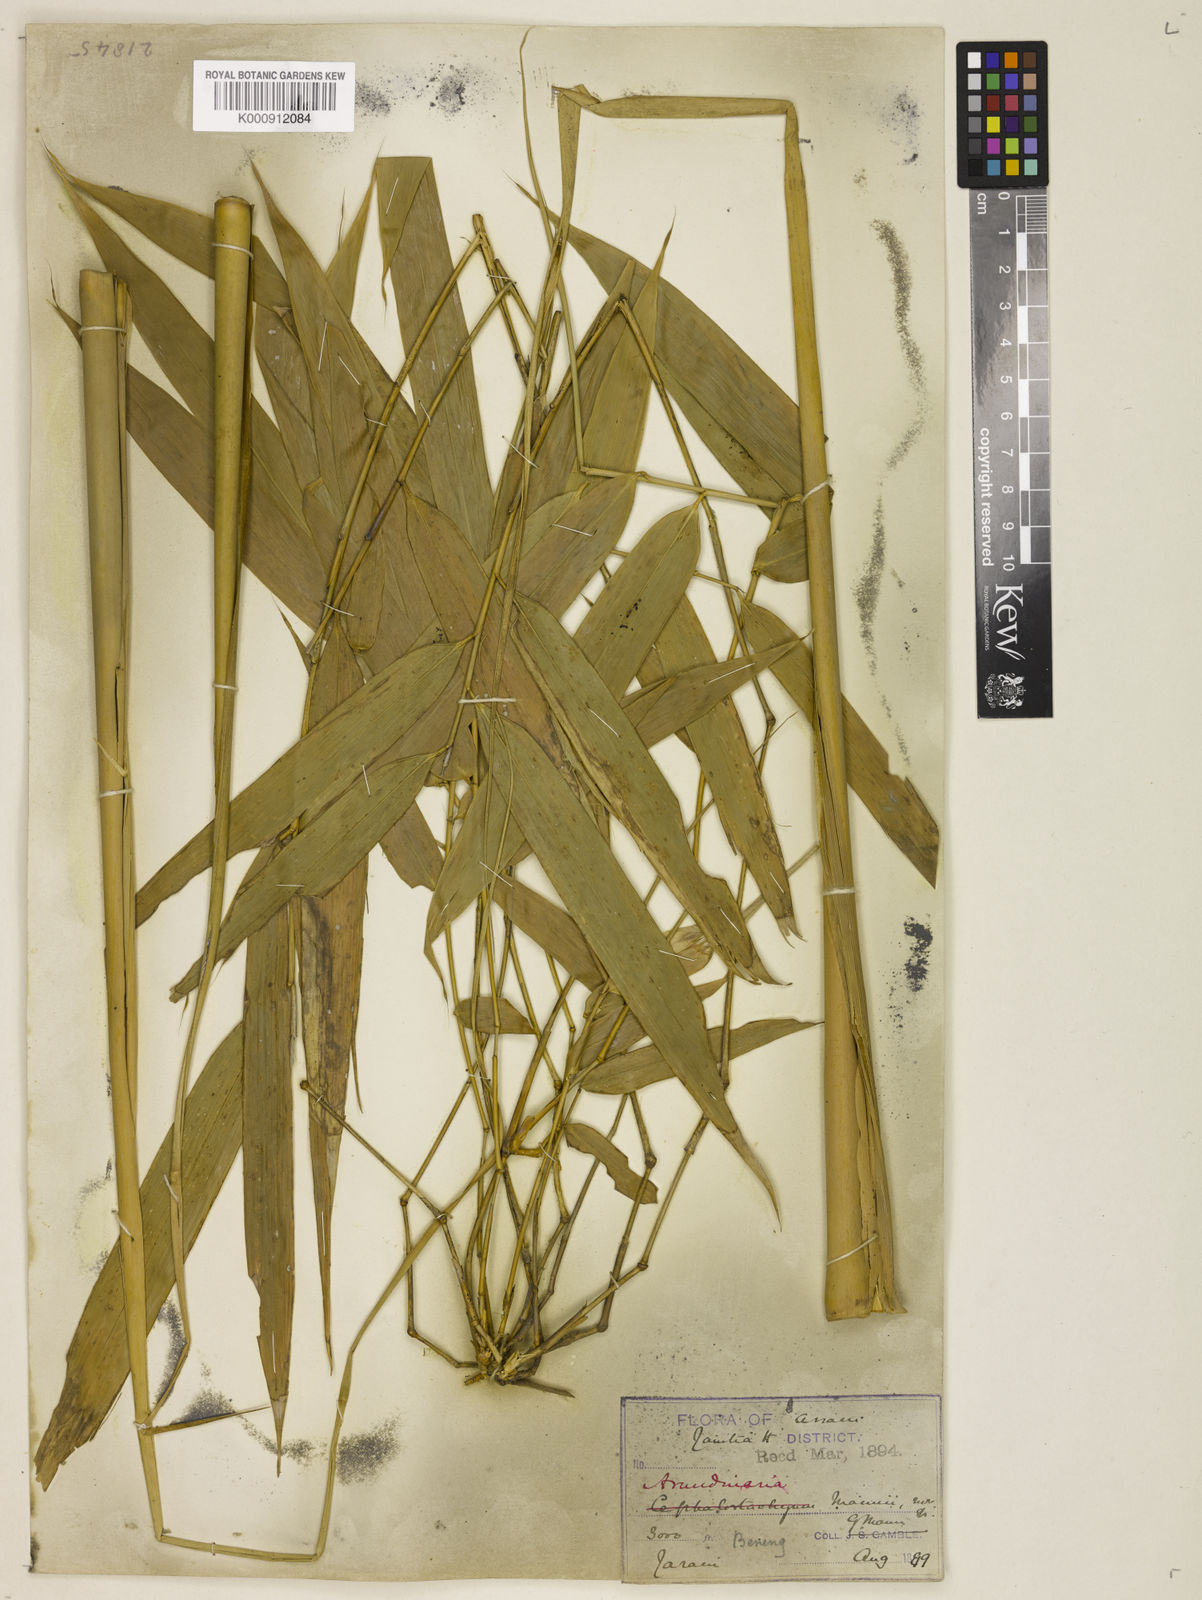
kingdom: Plantae
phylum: Tracheophyta
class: Liliopsida
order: Poales
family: Poaceae
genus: Cephalostachyum
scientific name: Cephalostachyum mannii
